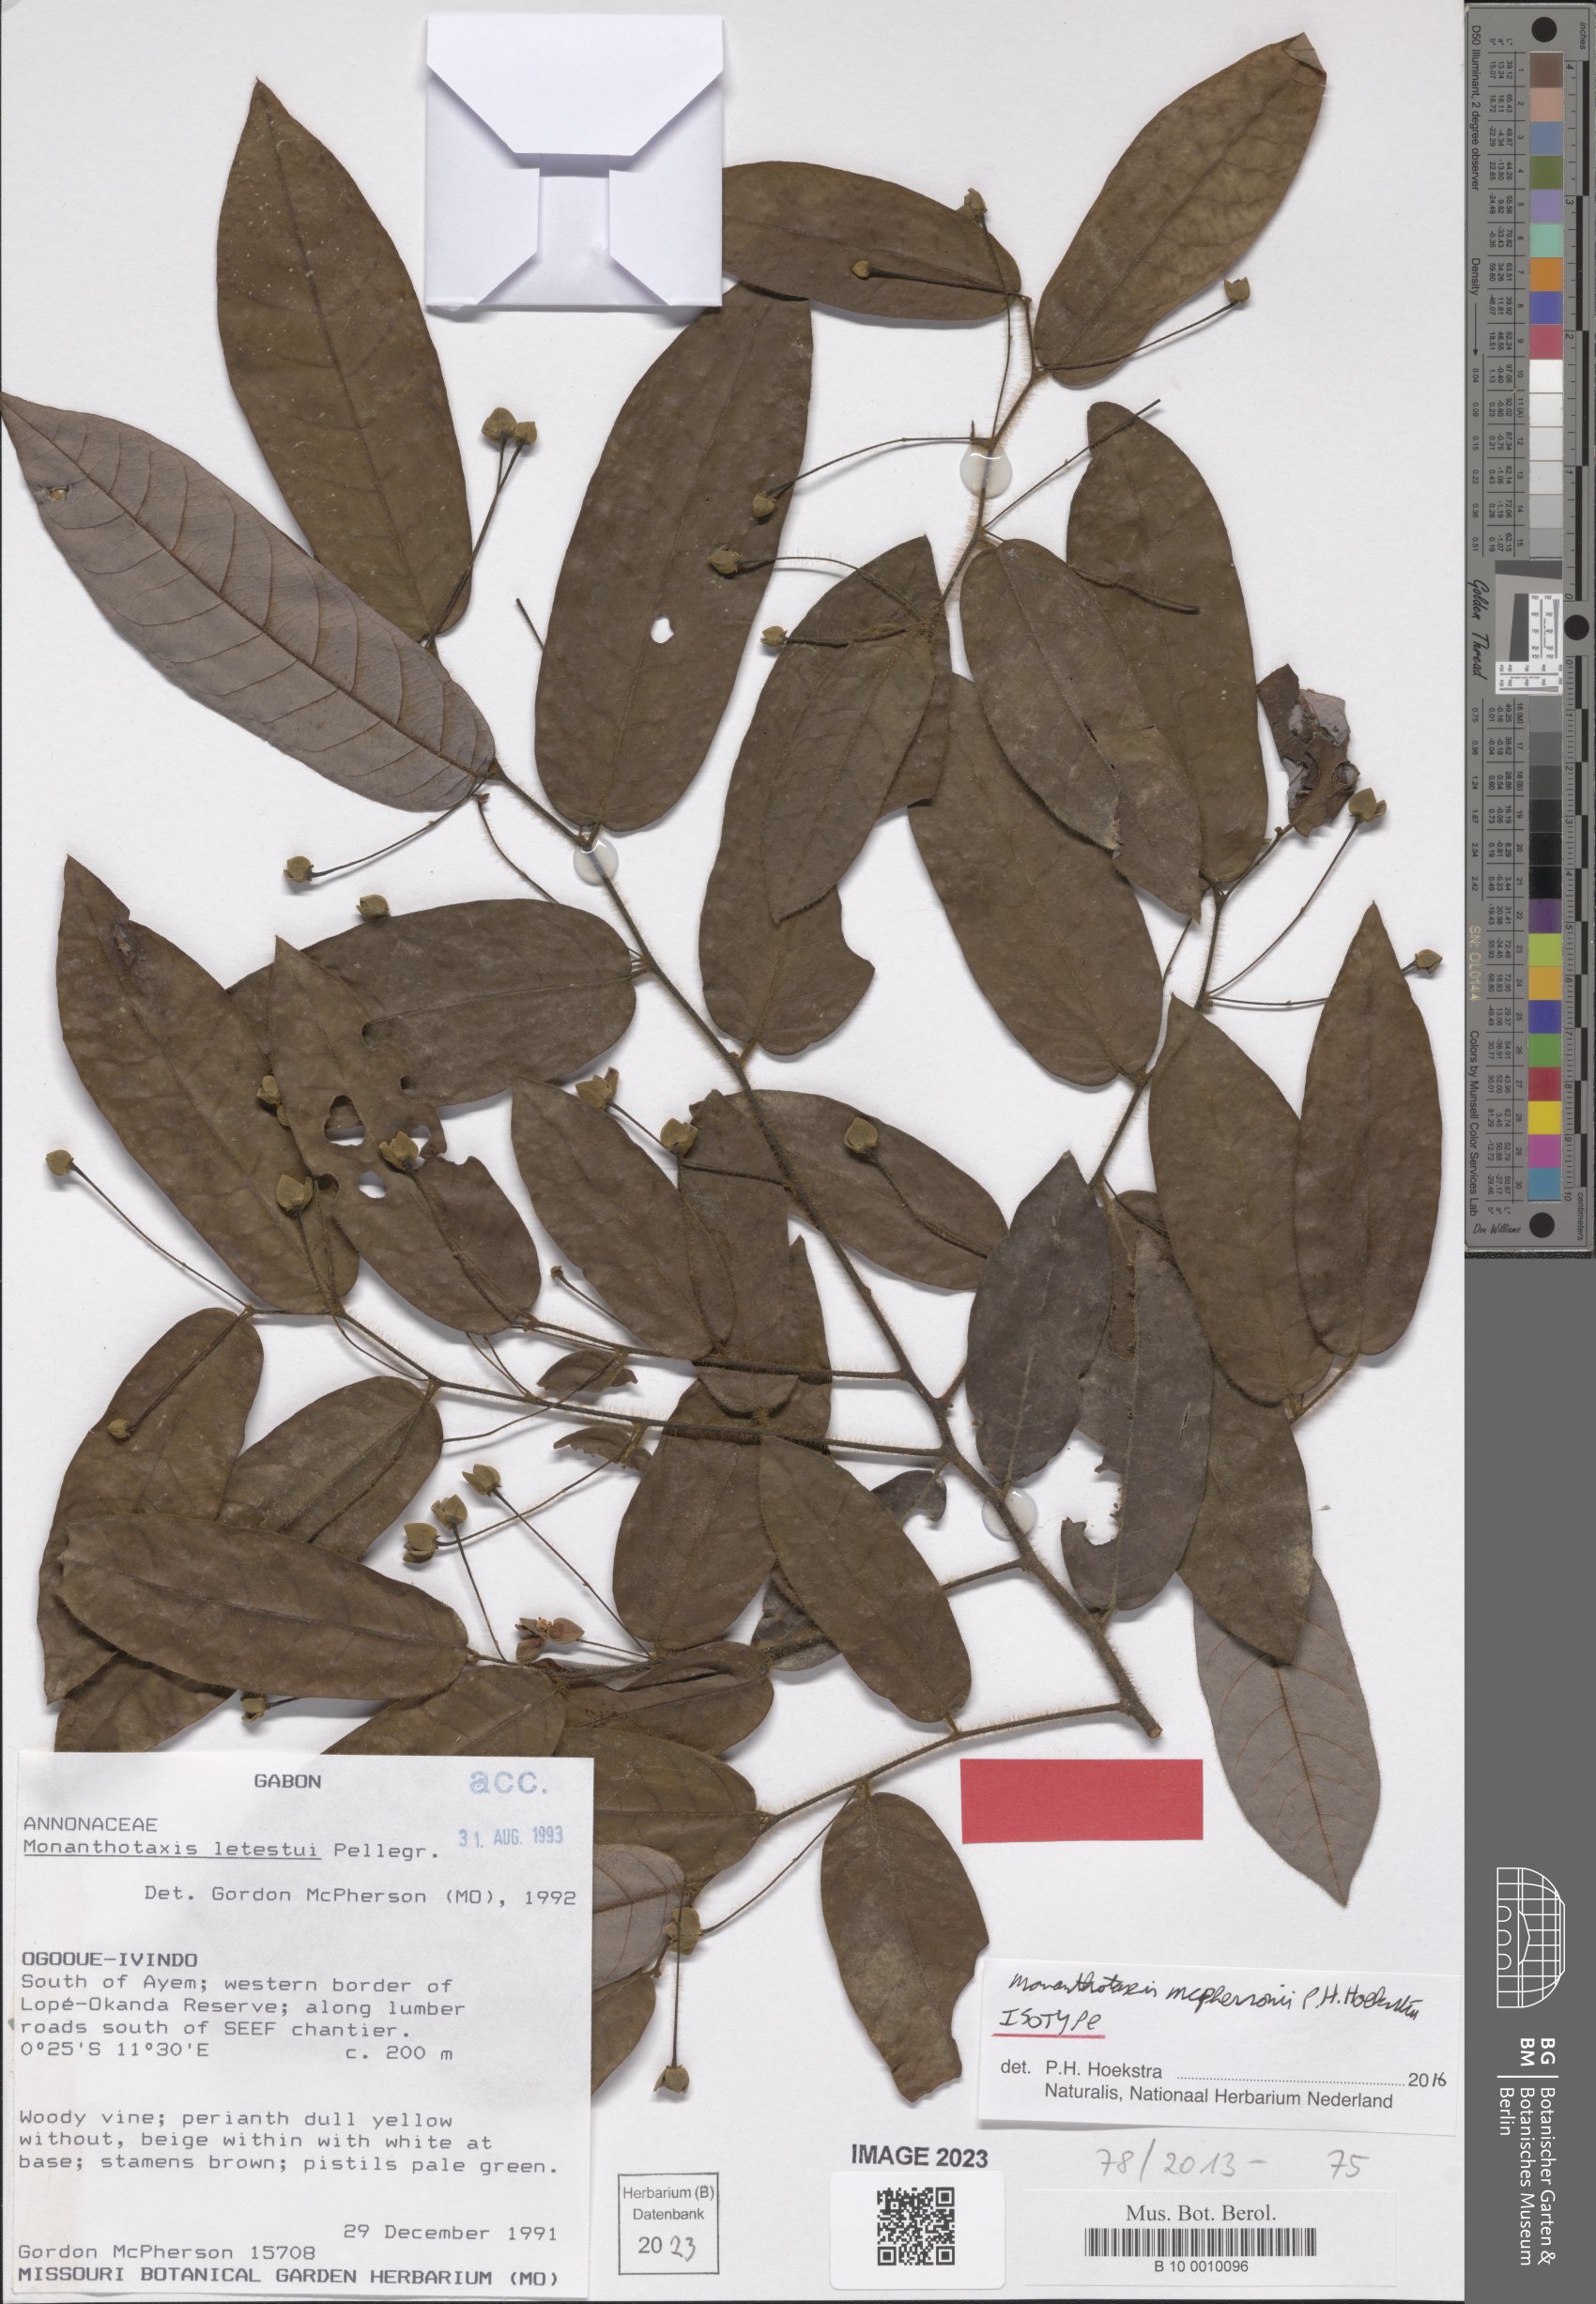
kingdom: Plantae
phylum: Tracheophyta
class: Magnoliopsida
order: Magnoliales
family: Annonaceae
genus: Monanthotaxis
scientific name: Monanthotaxis
